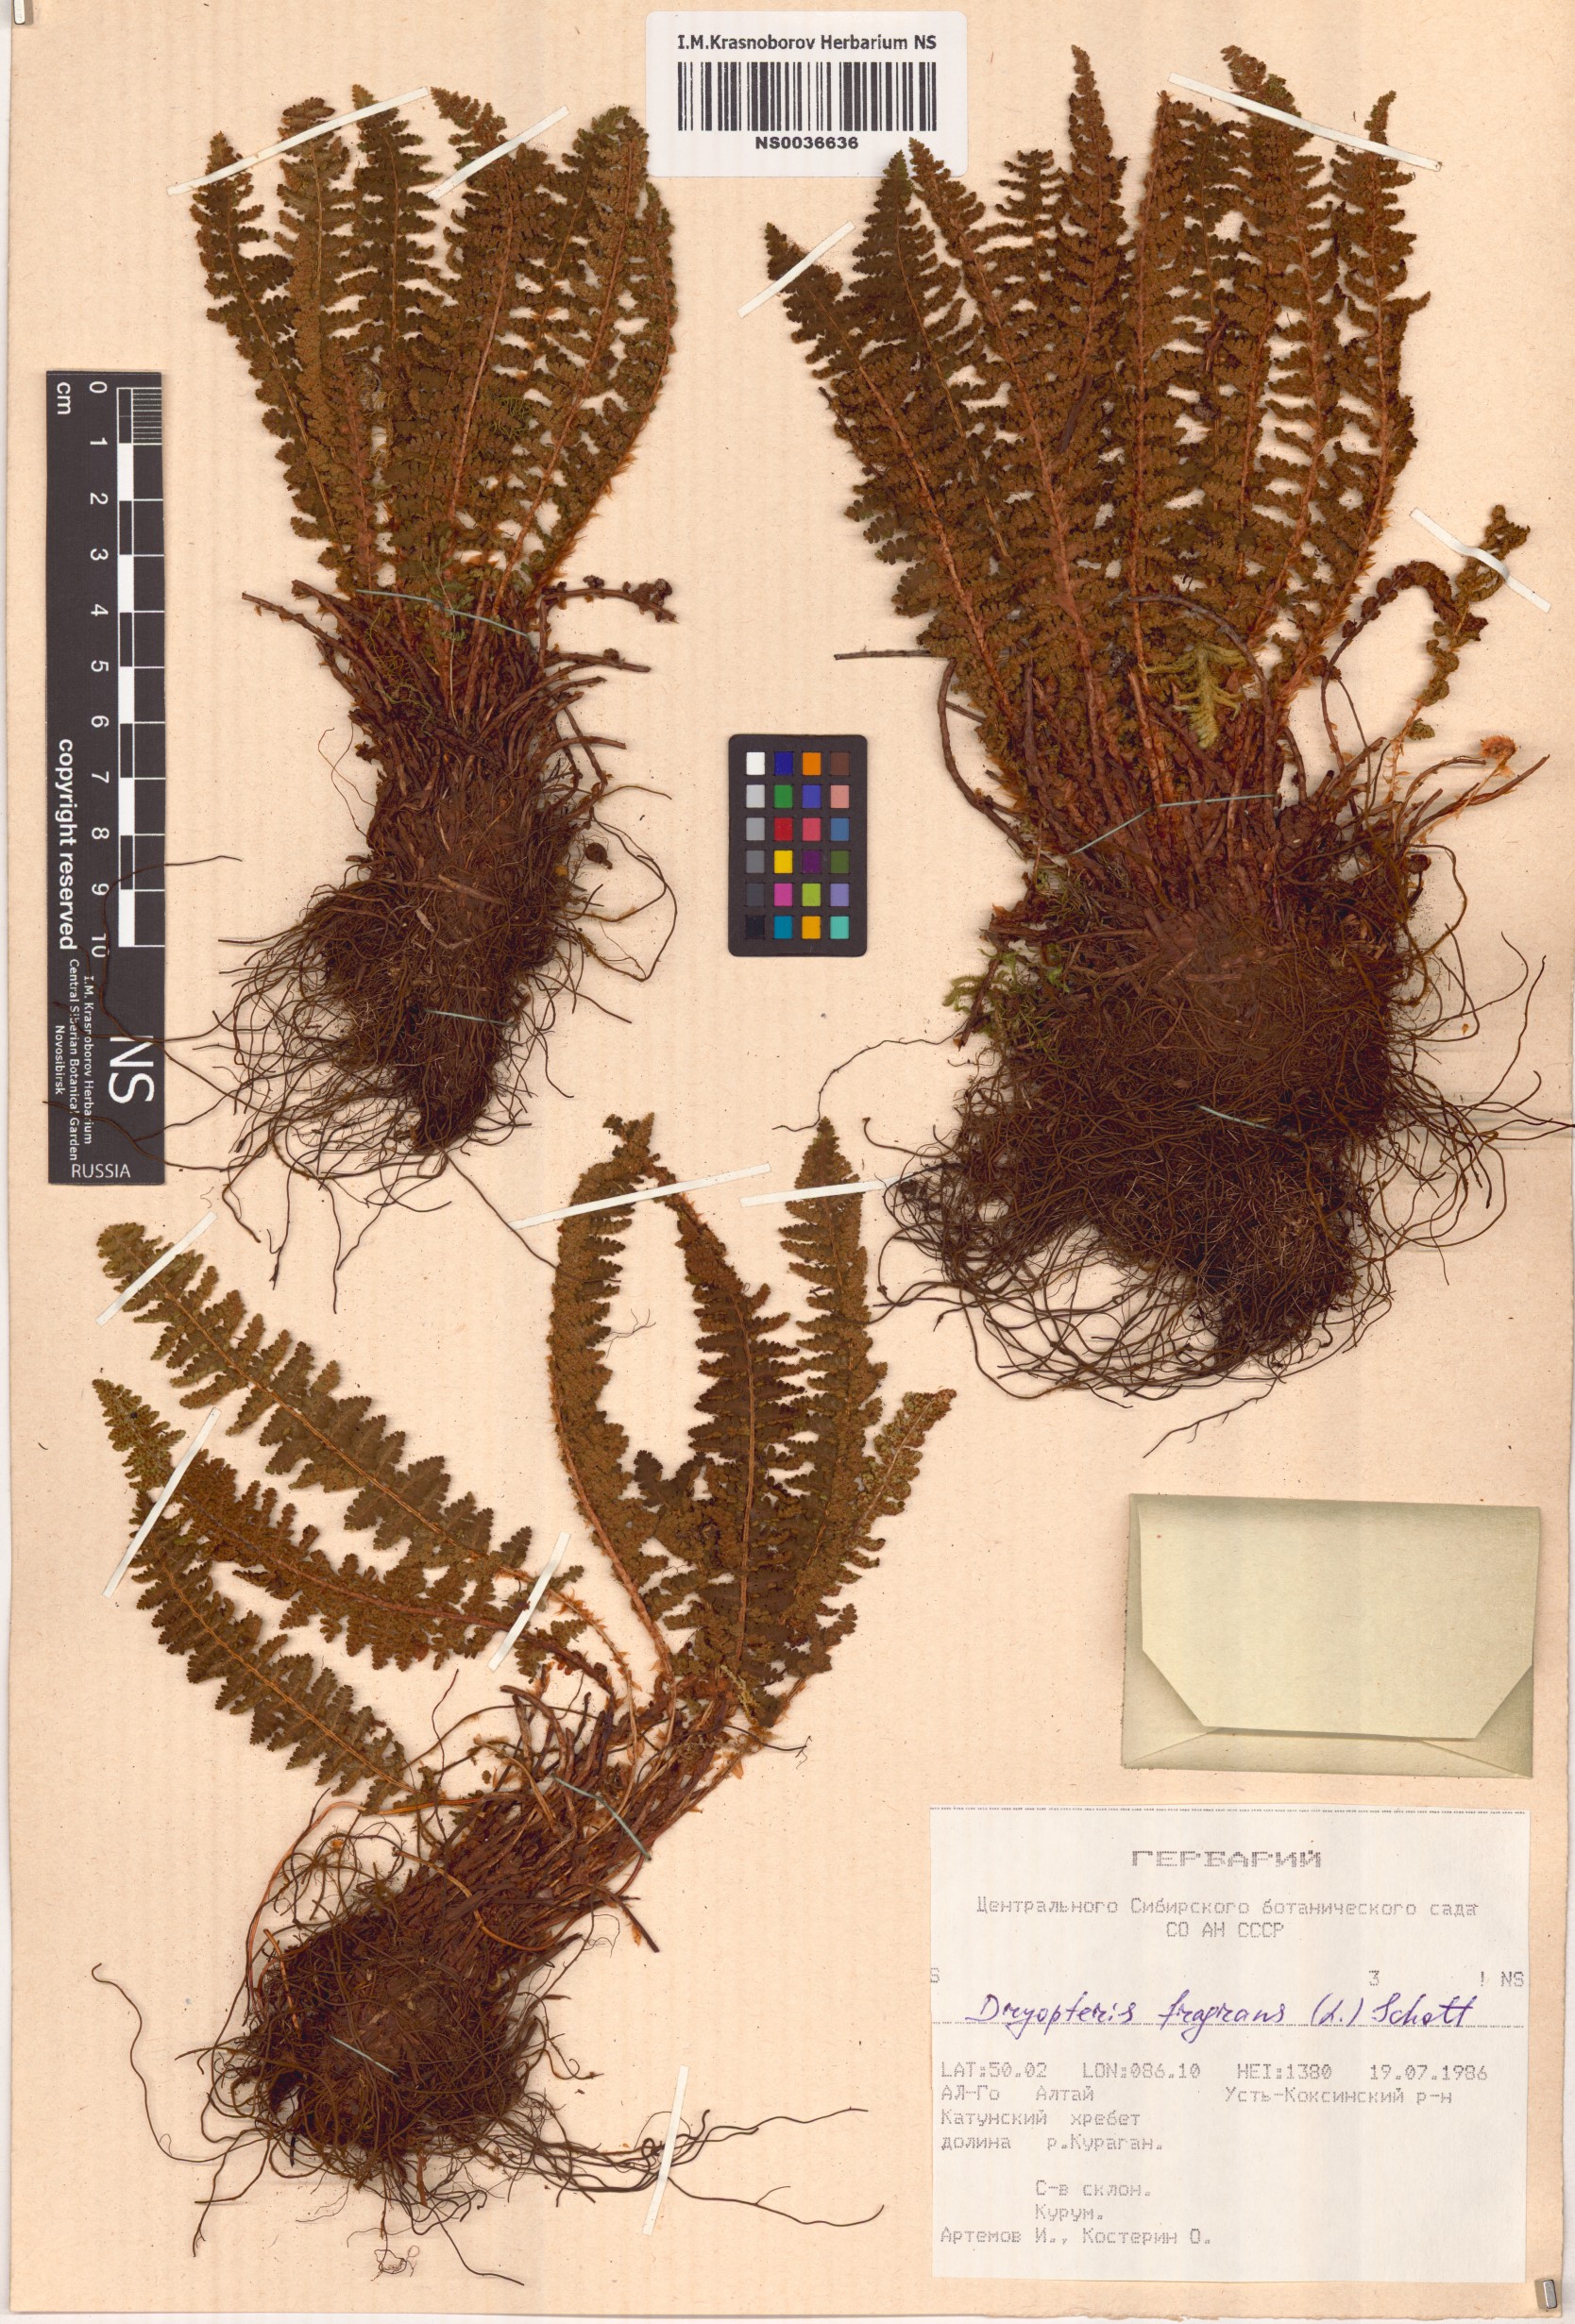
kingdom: Plantae
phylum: Tracheophyta
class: Polypodiopsida
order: Polypodiales
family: Dryopteridaceae
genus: Dryopteris
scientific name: Dryopteris fragrans
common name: Fragrant wood fern
